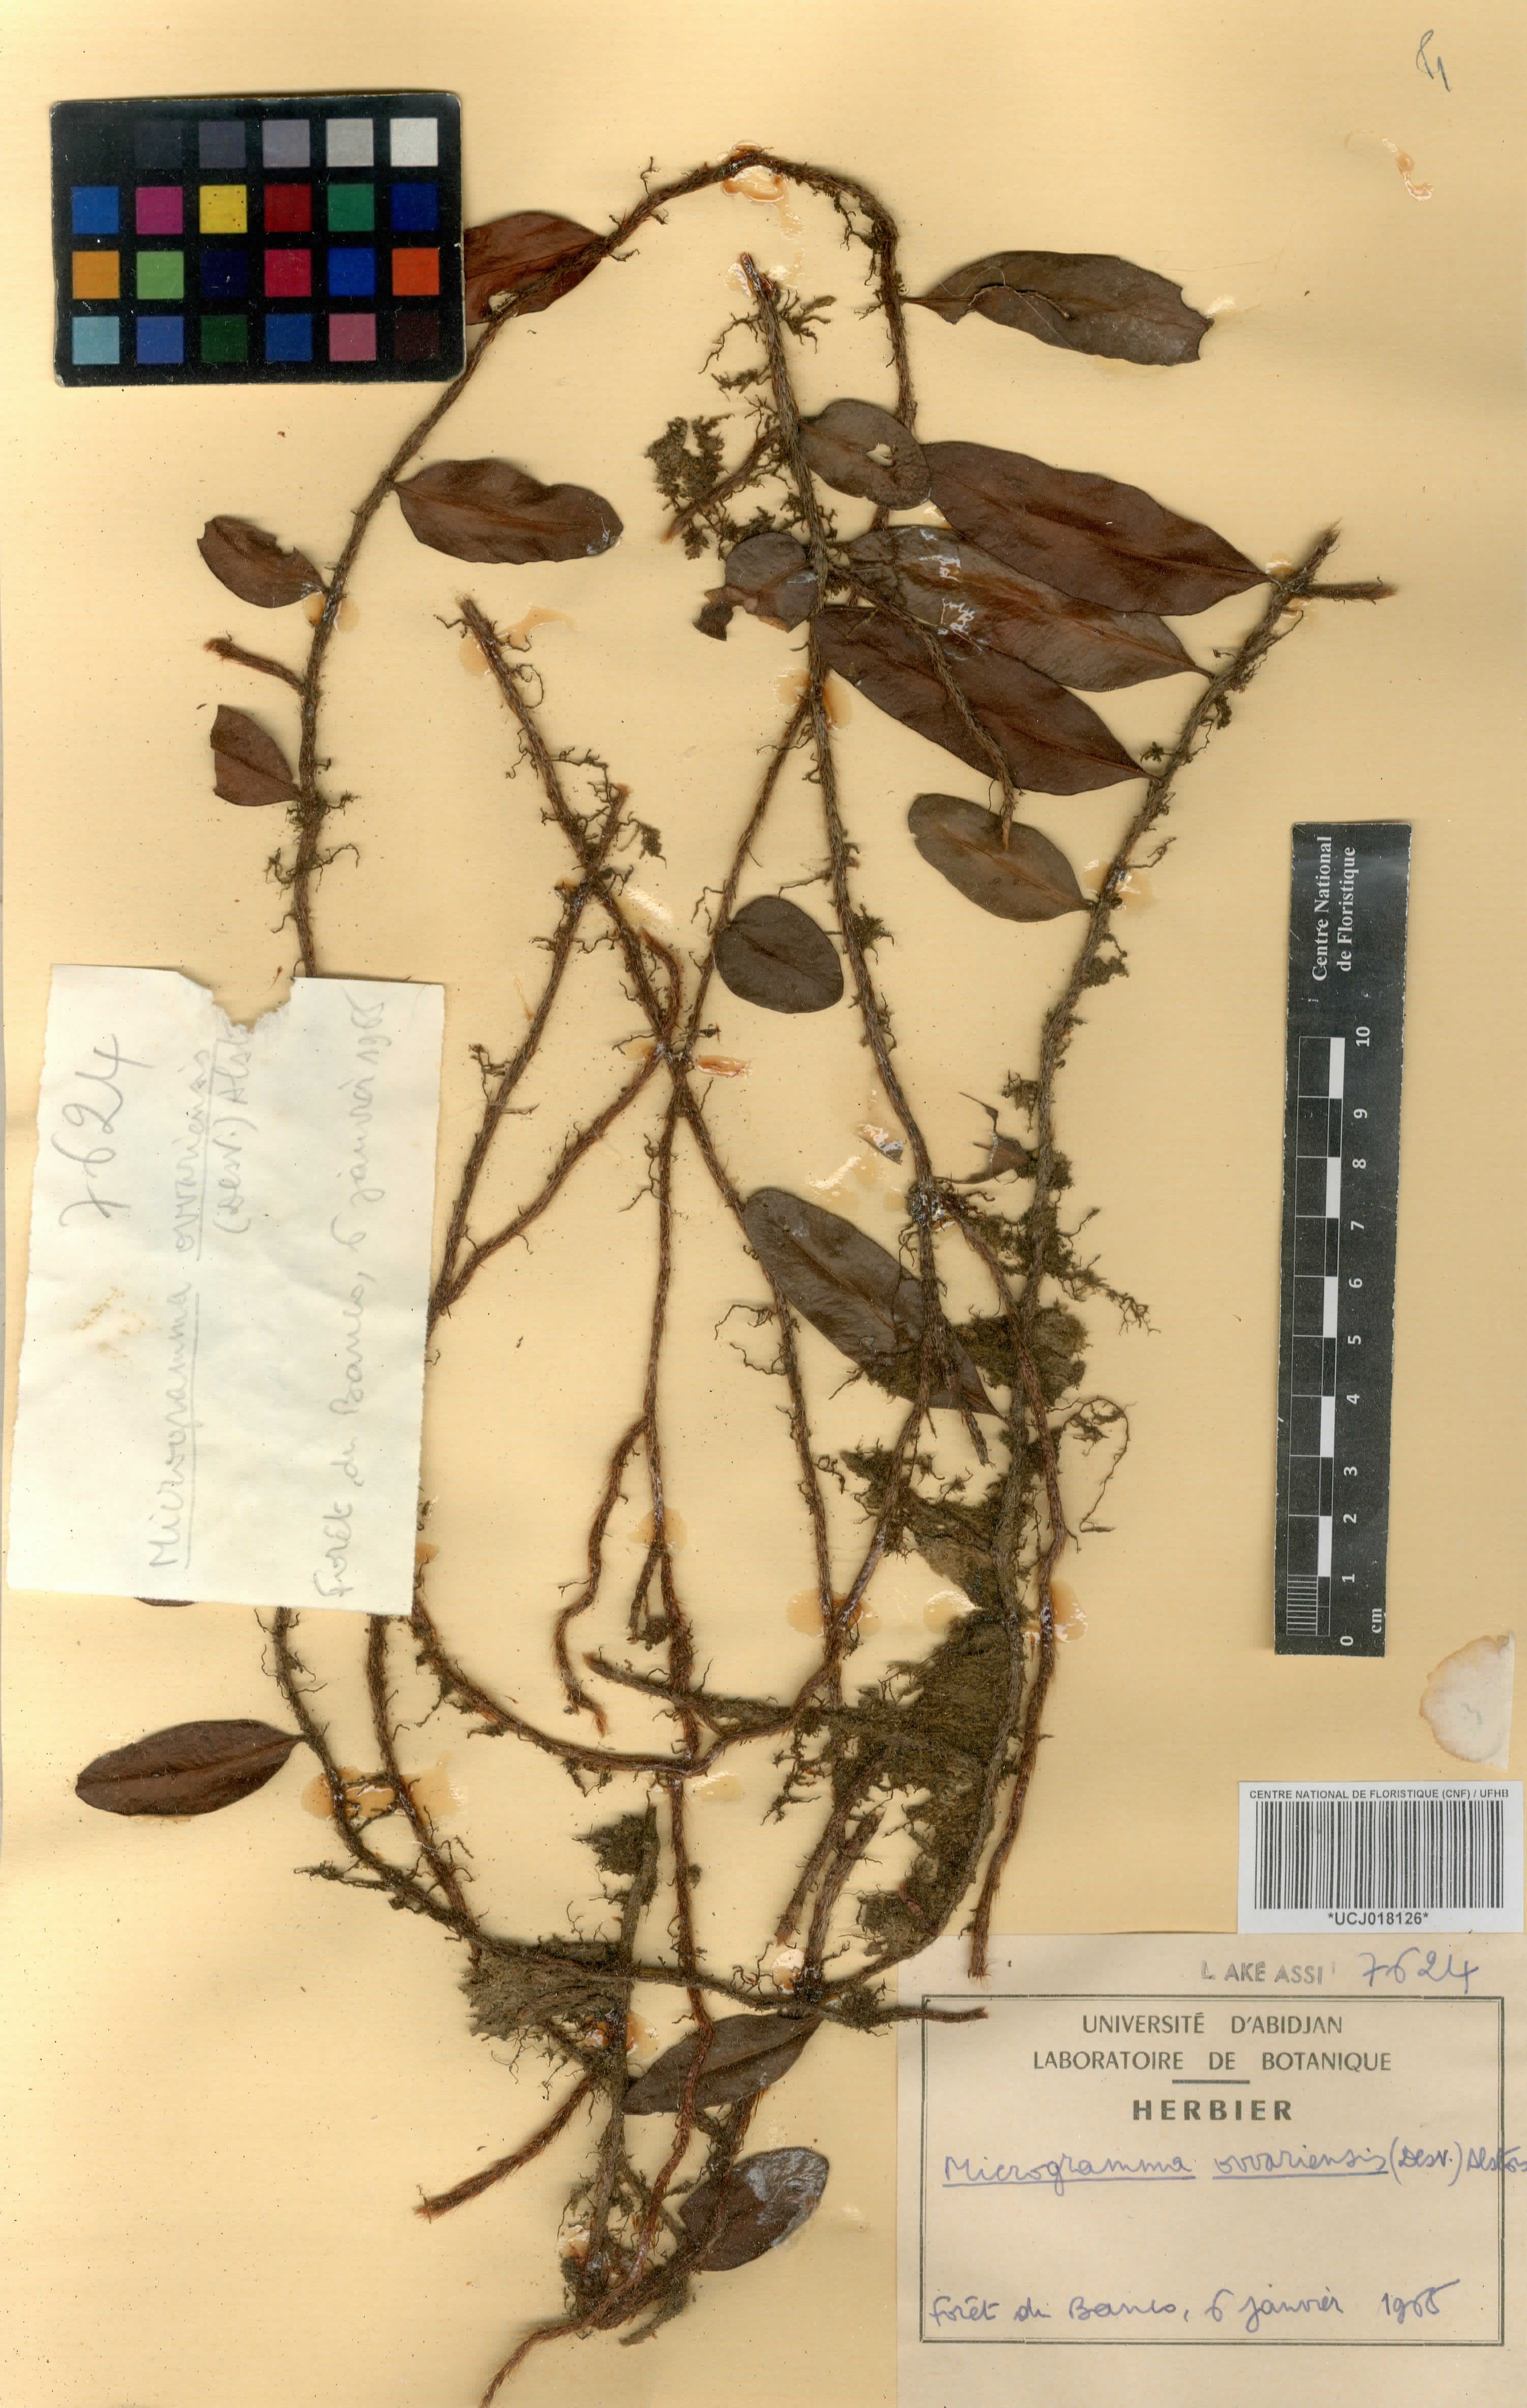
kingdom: Plantae
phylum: Tracheophyta
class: Polypodiopsida
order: Polypodiales
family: Polypodiaceae
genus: Microgramma
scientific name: Microgramma mauritiana
